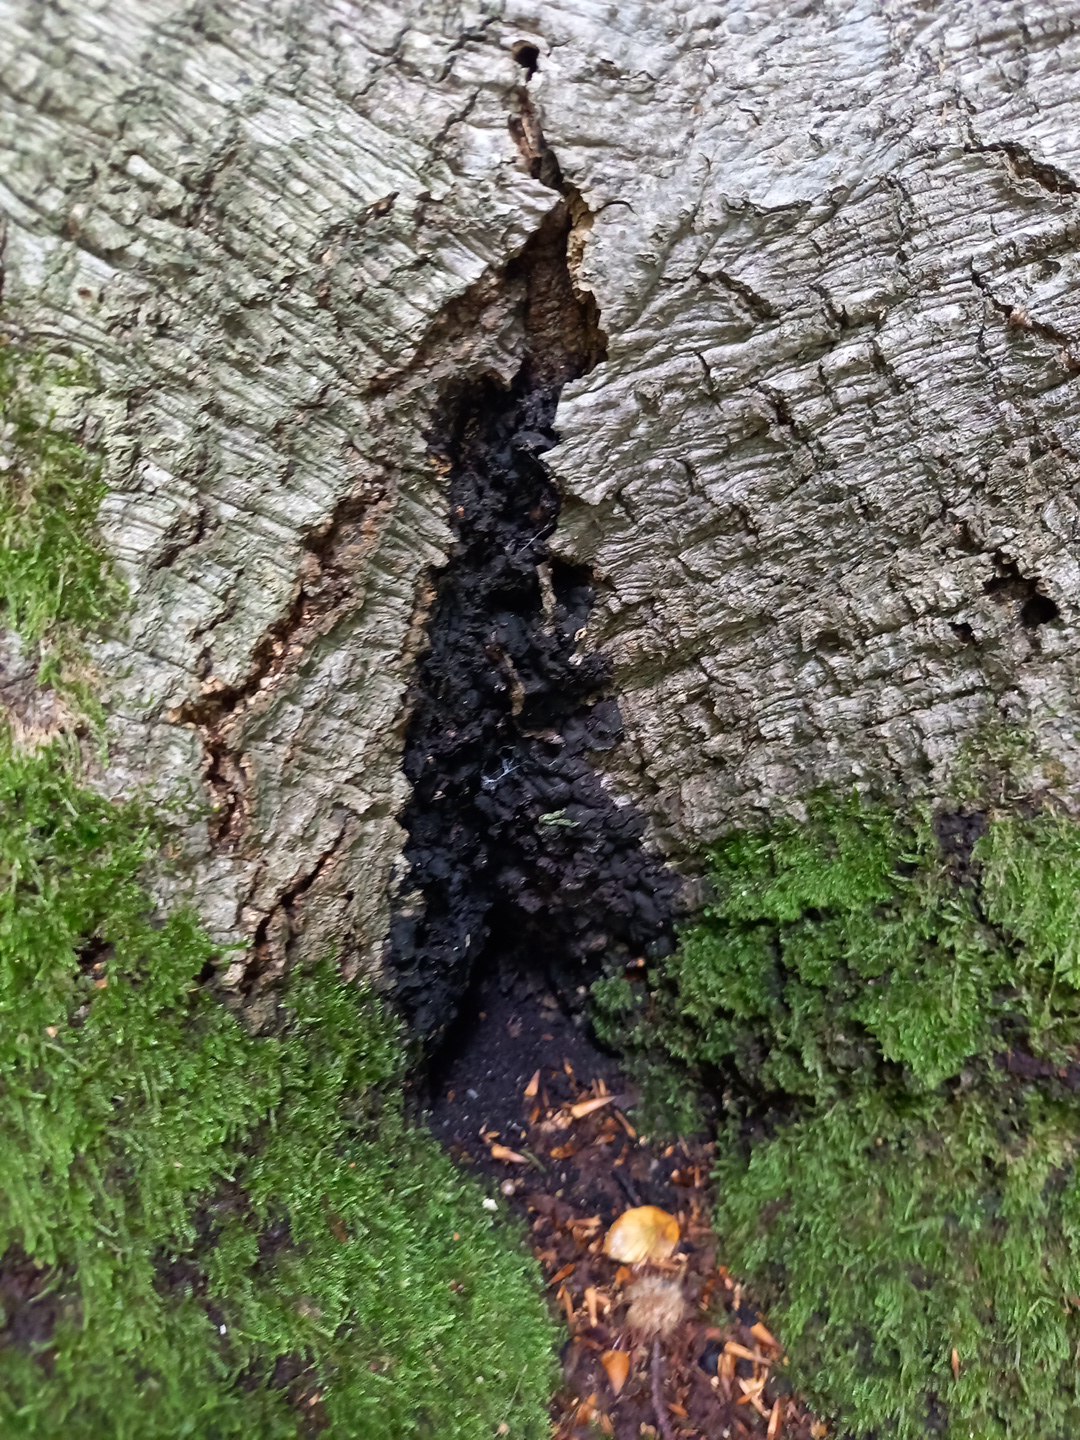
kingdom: Fungi
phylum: Ascomycota
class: Sordariomycetes
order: Xylariales
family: Xylariaceae
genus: Kretzschmaria
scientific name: Kretzschmaria deusta
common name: stor kulsvamp
